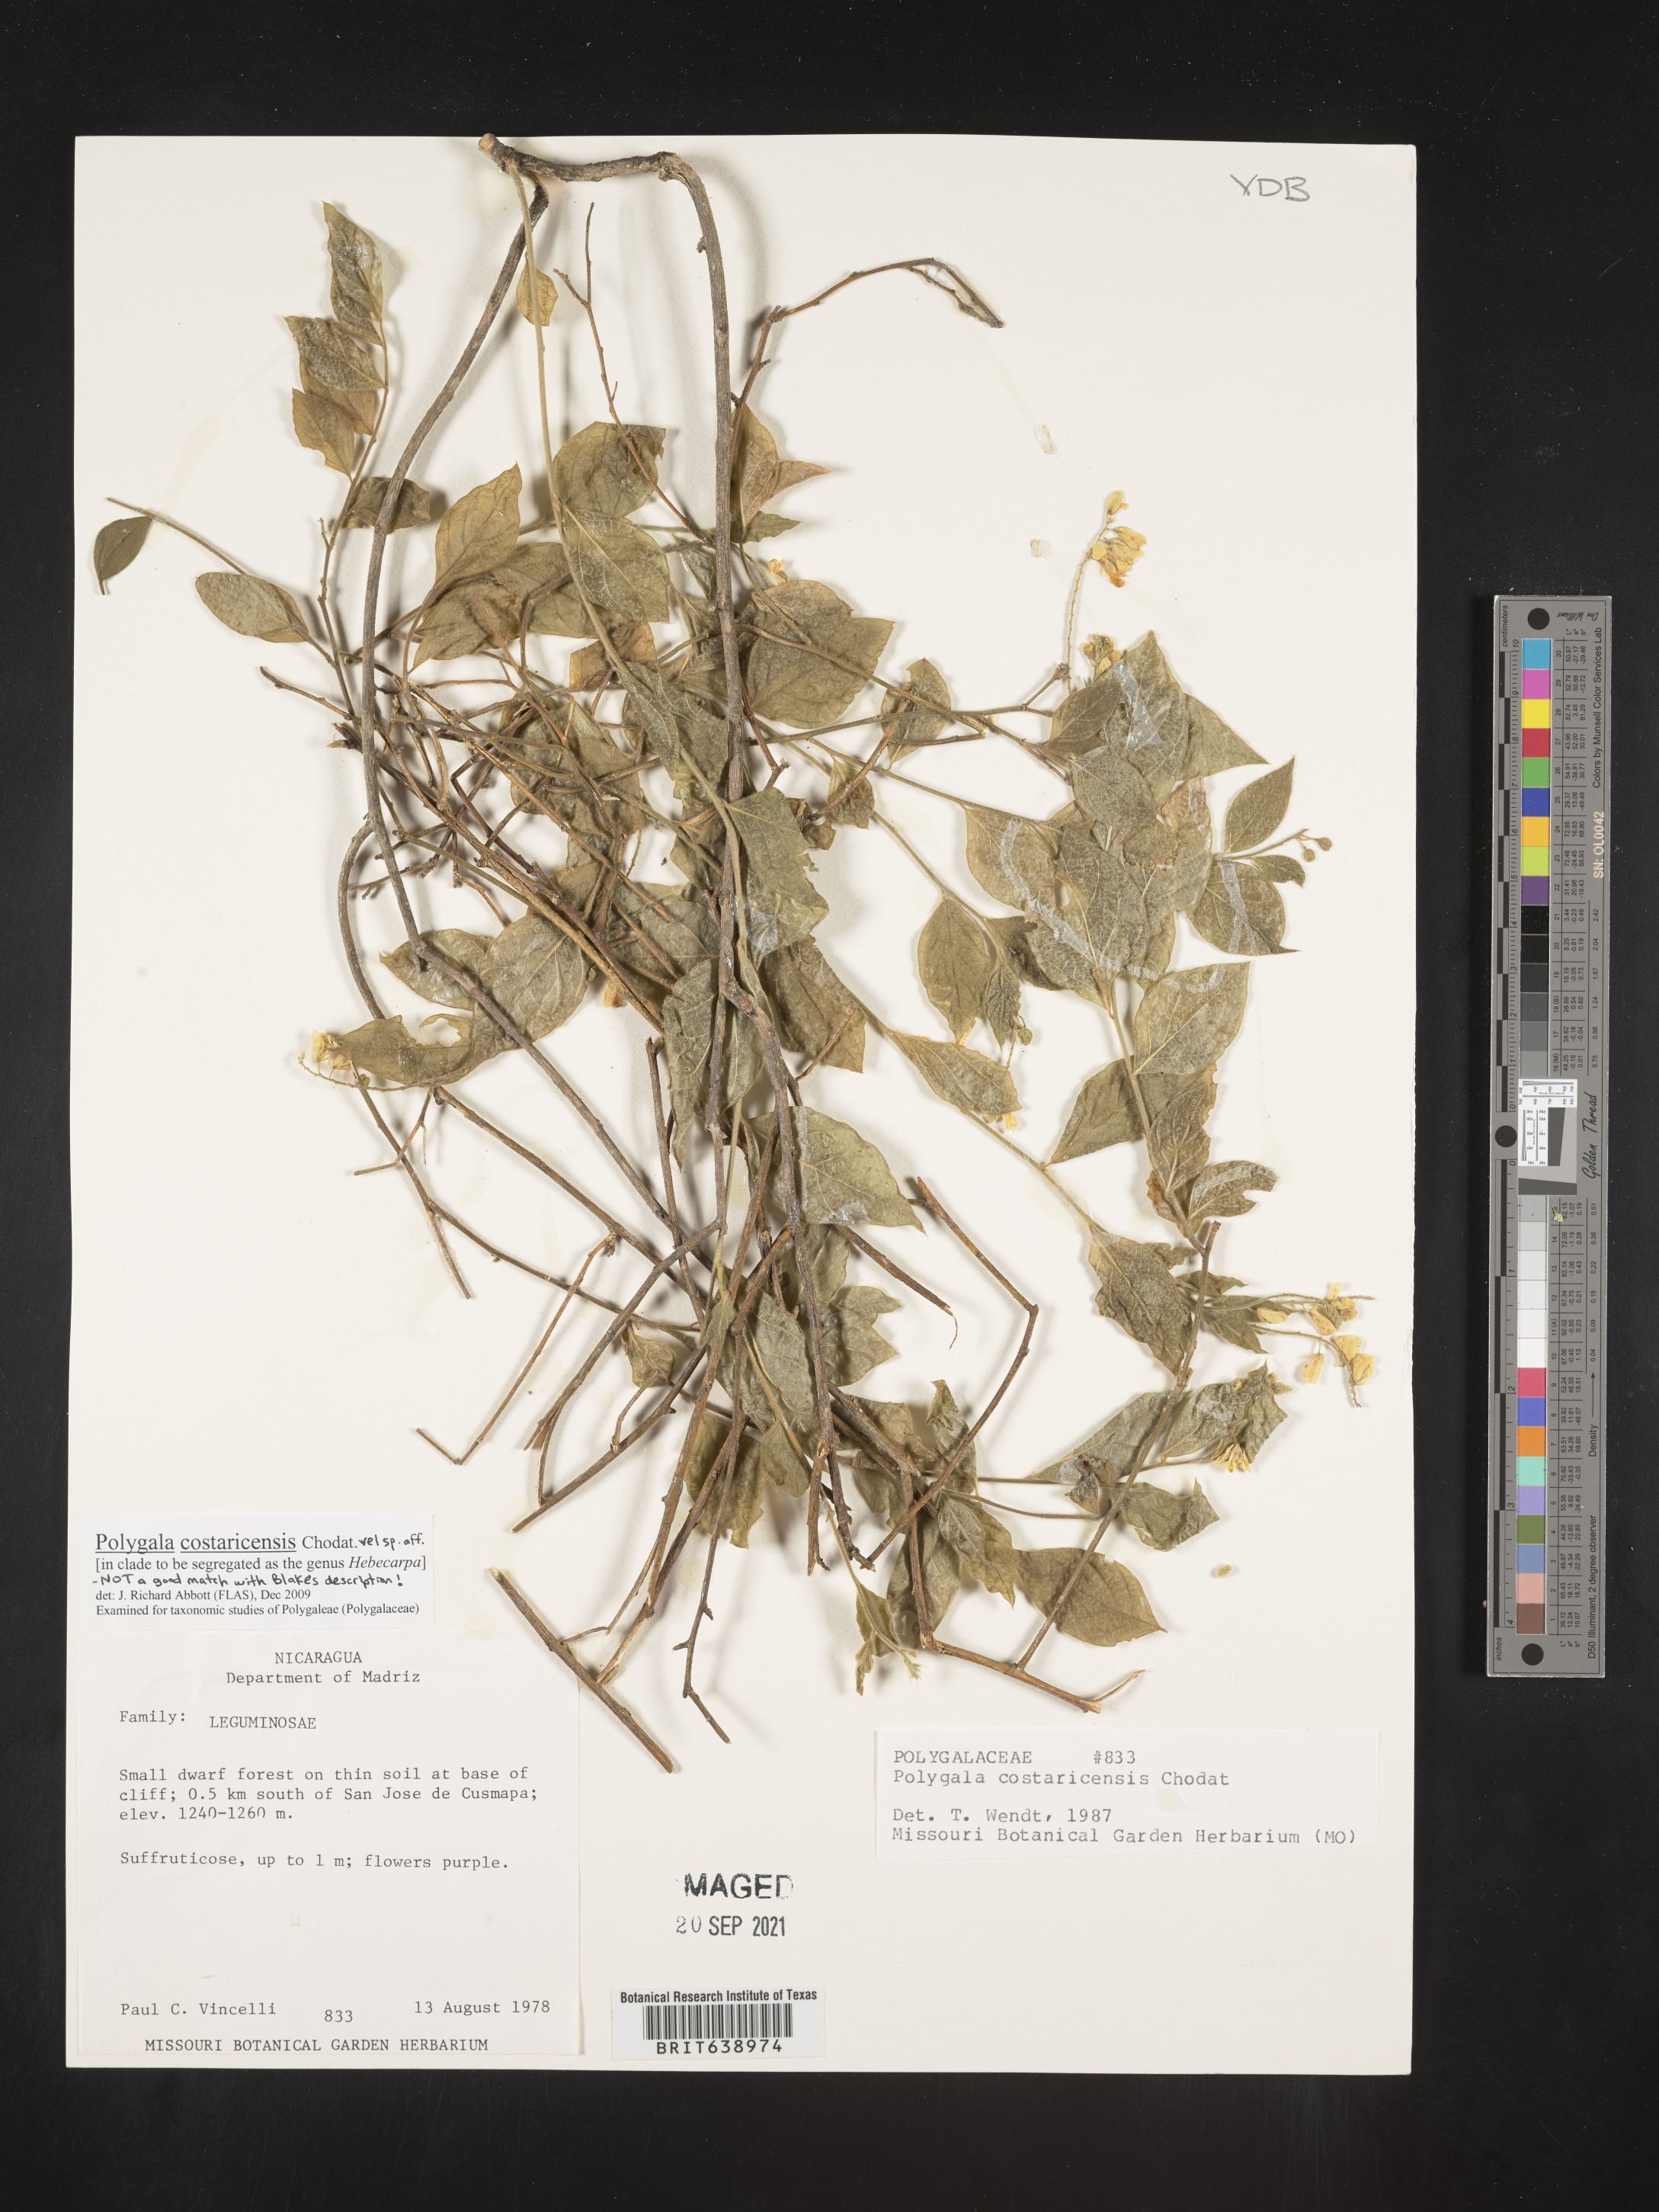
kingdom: Plantae
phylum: Tracheophyta
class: Magnoliopsida
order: Fabales
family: Polygalaceae
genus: Polygala
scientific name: Polygala
